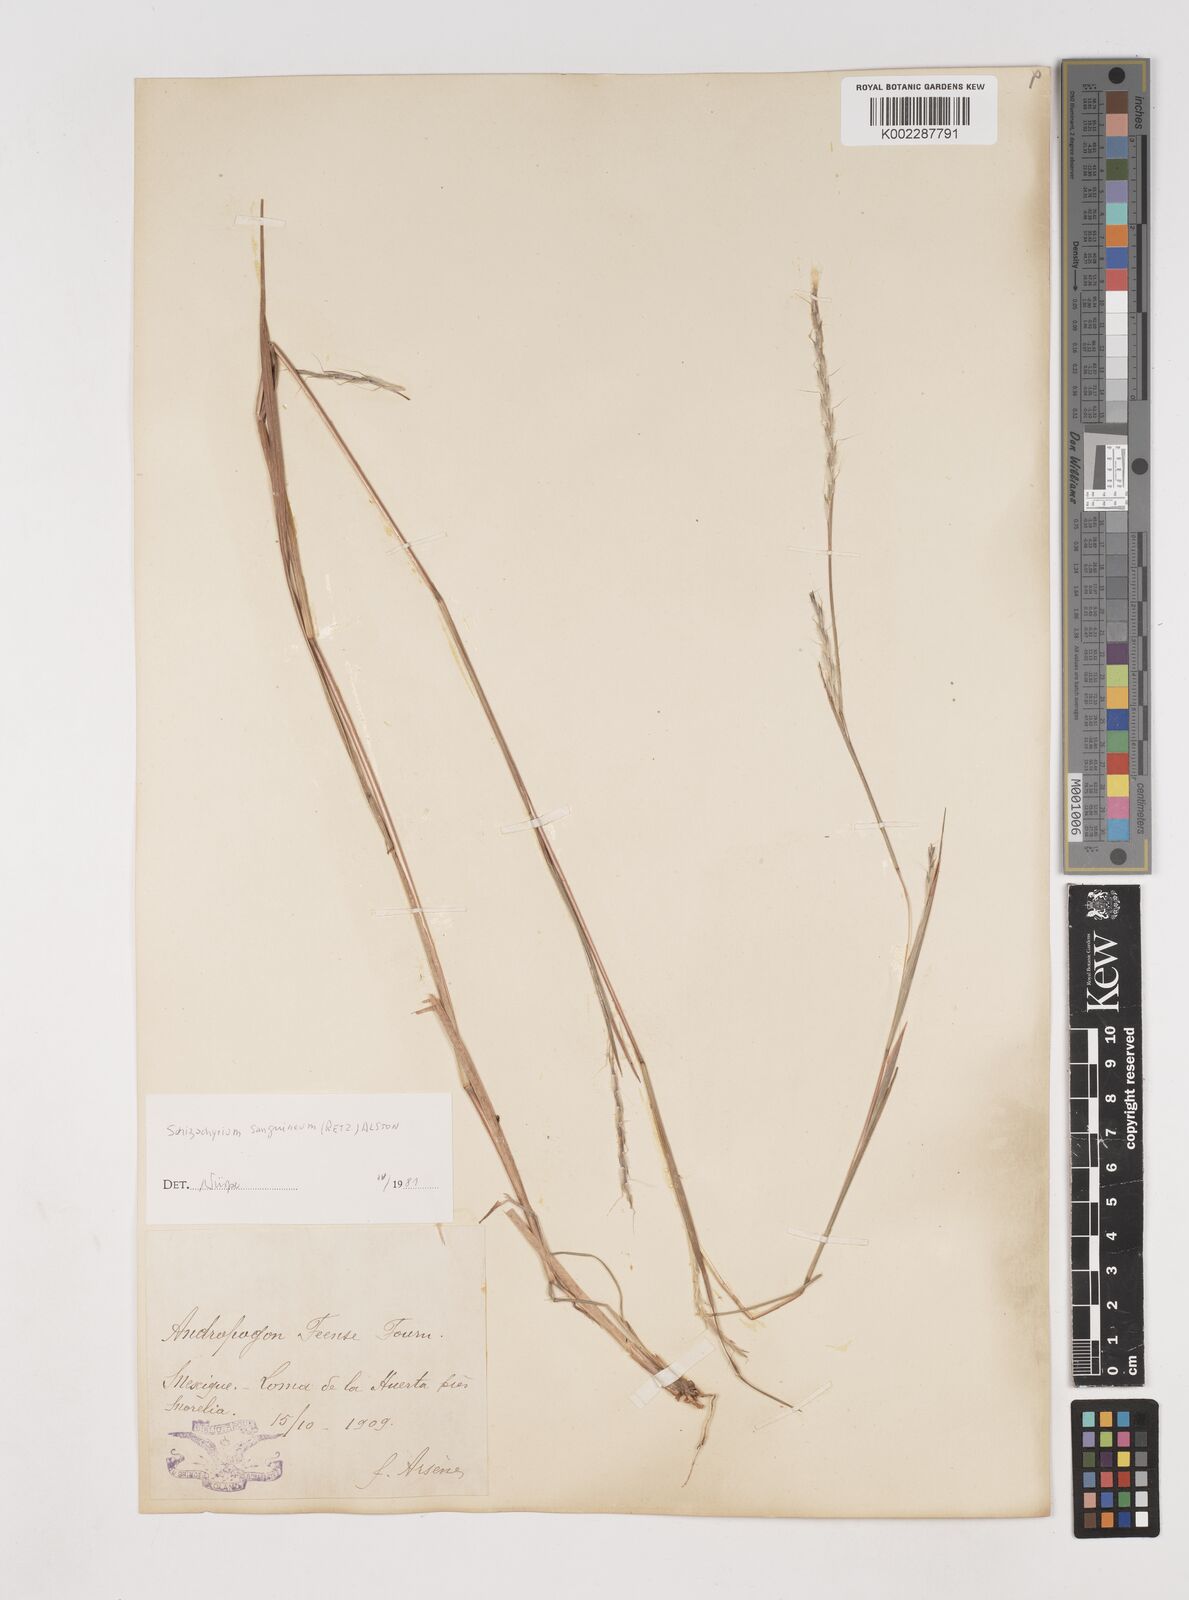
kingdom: Plantae
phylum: Tracheophyta
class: Liliopsida
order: Poales
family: Poaceae
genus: Schizachyrium
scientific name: Schizachyrium sanguineum
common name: Crimson bluestem
